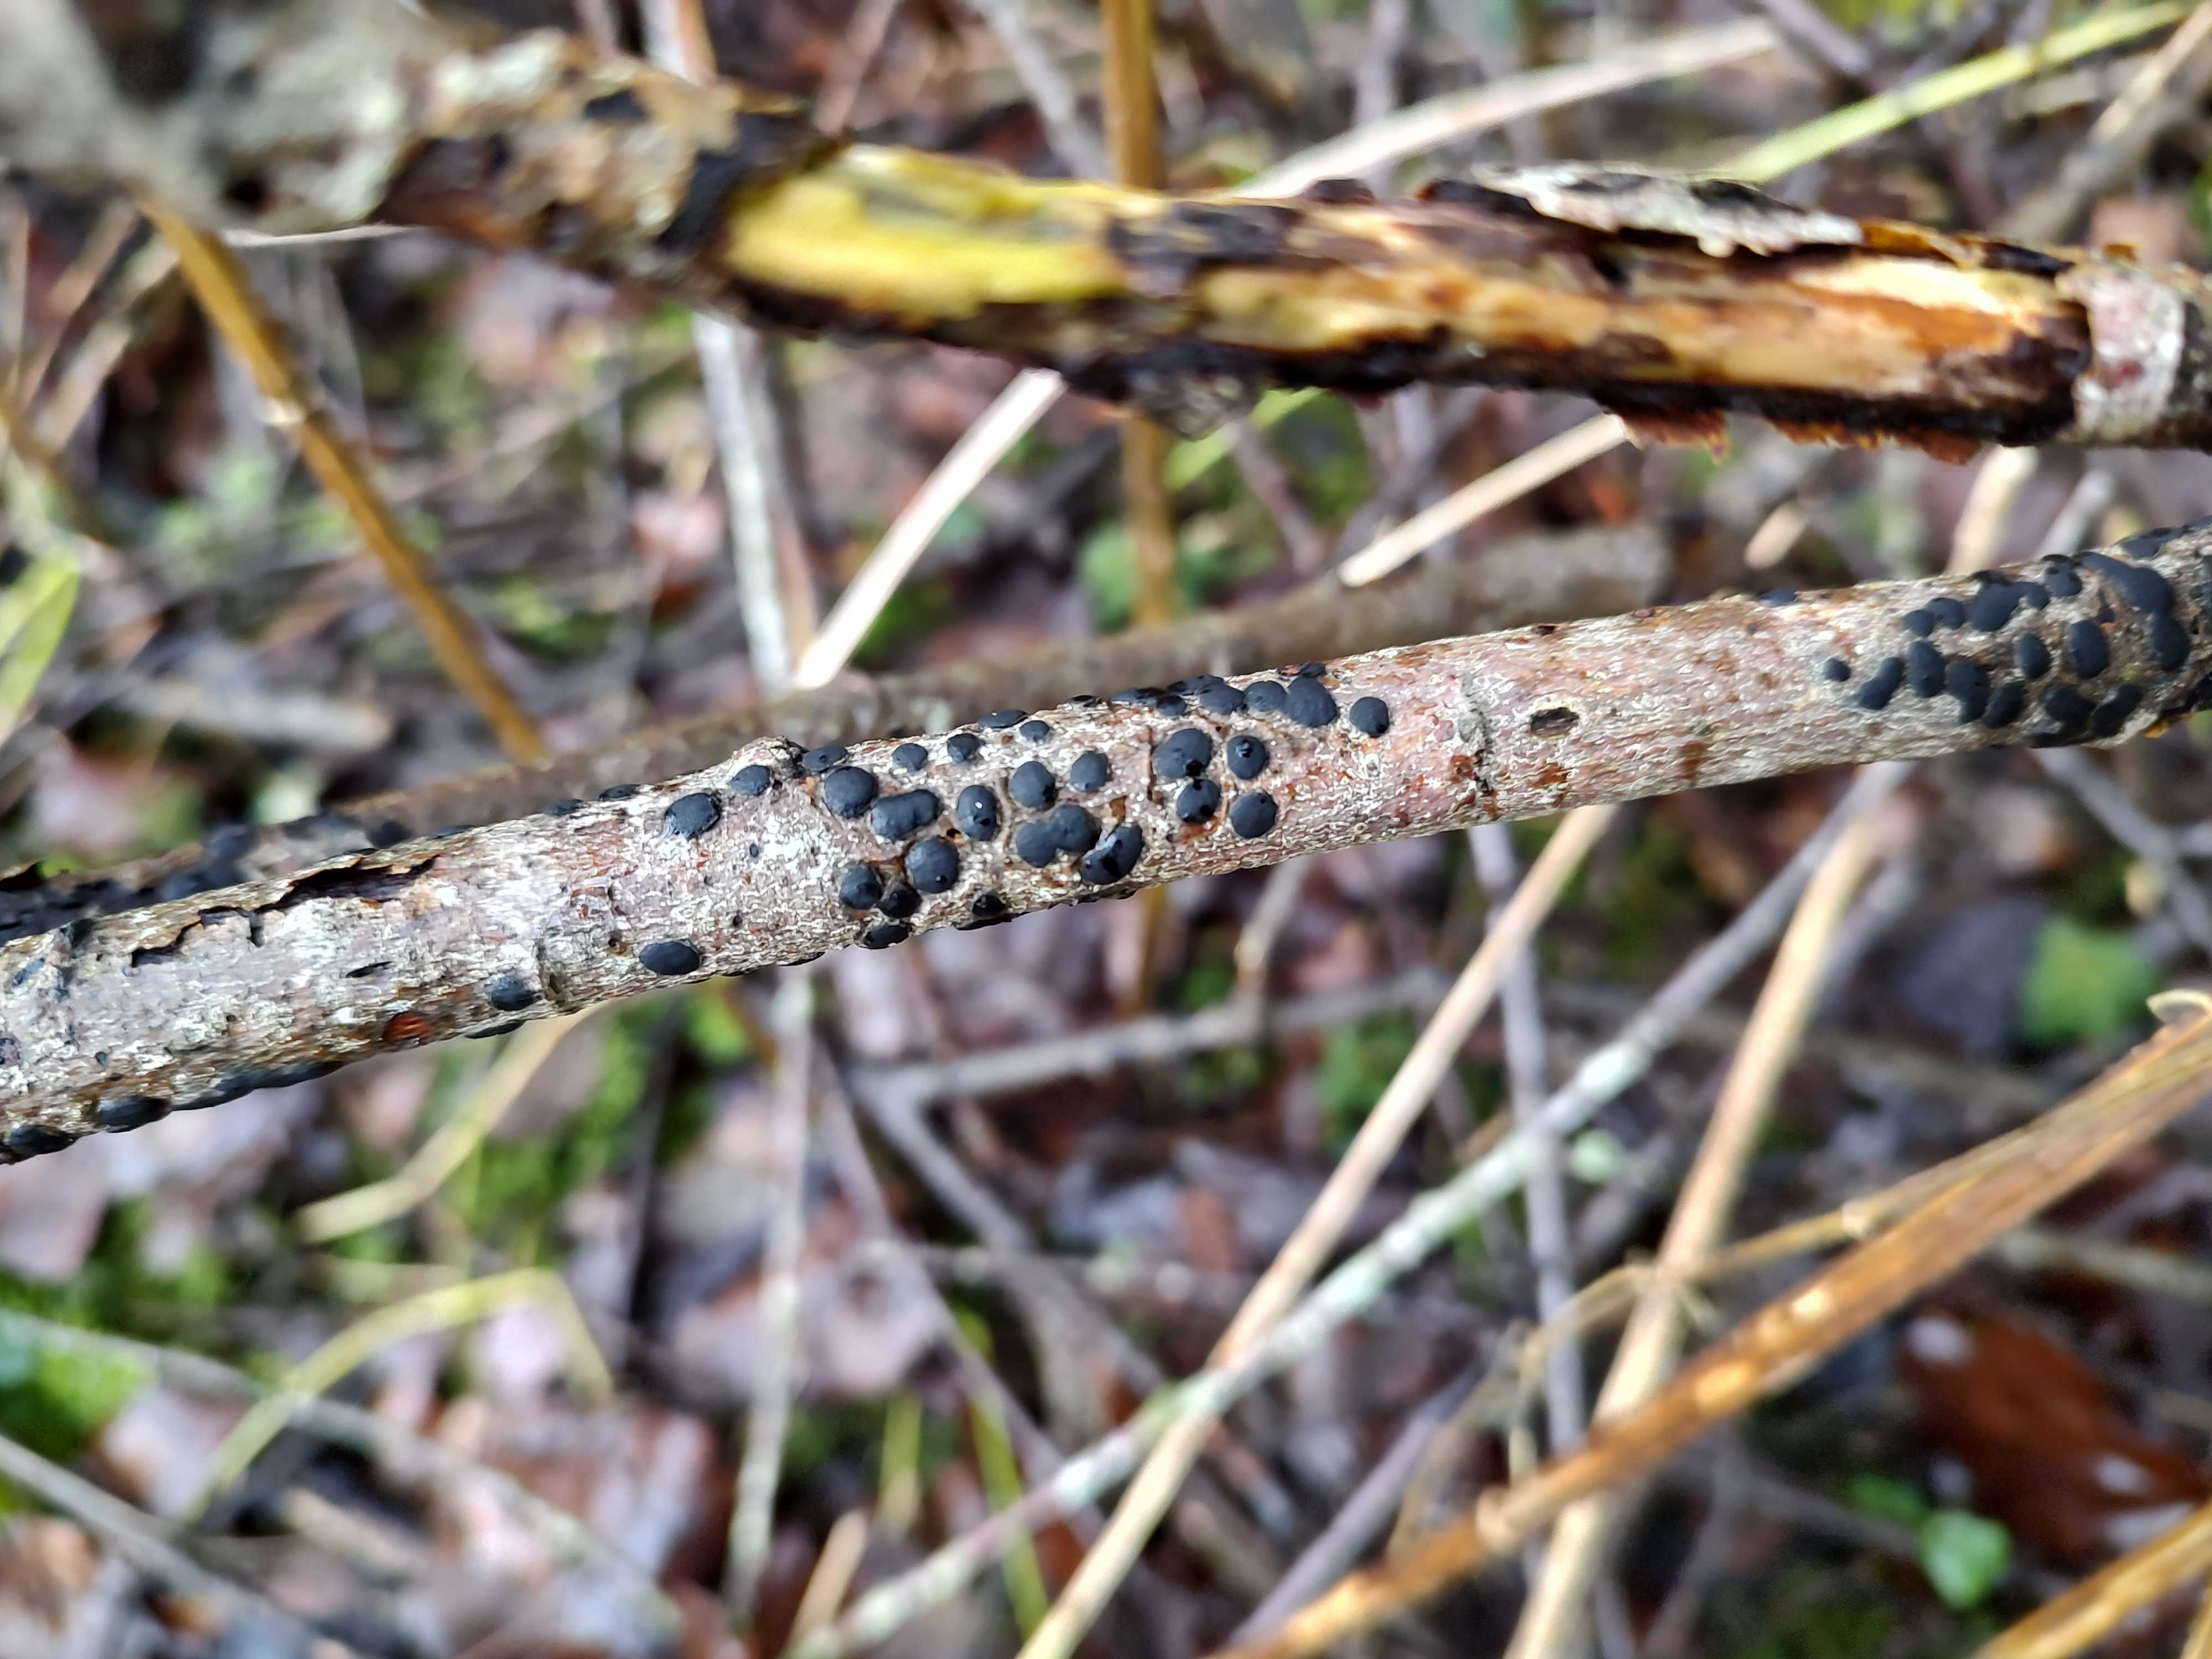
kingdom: Fungi
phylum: Ascomycota
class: Sordariomycetes
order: Xylariales
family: Diatrypaceae
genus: Diatrype
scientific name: Diatrype bullata
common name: pile-kulskorpe
